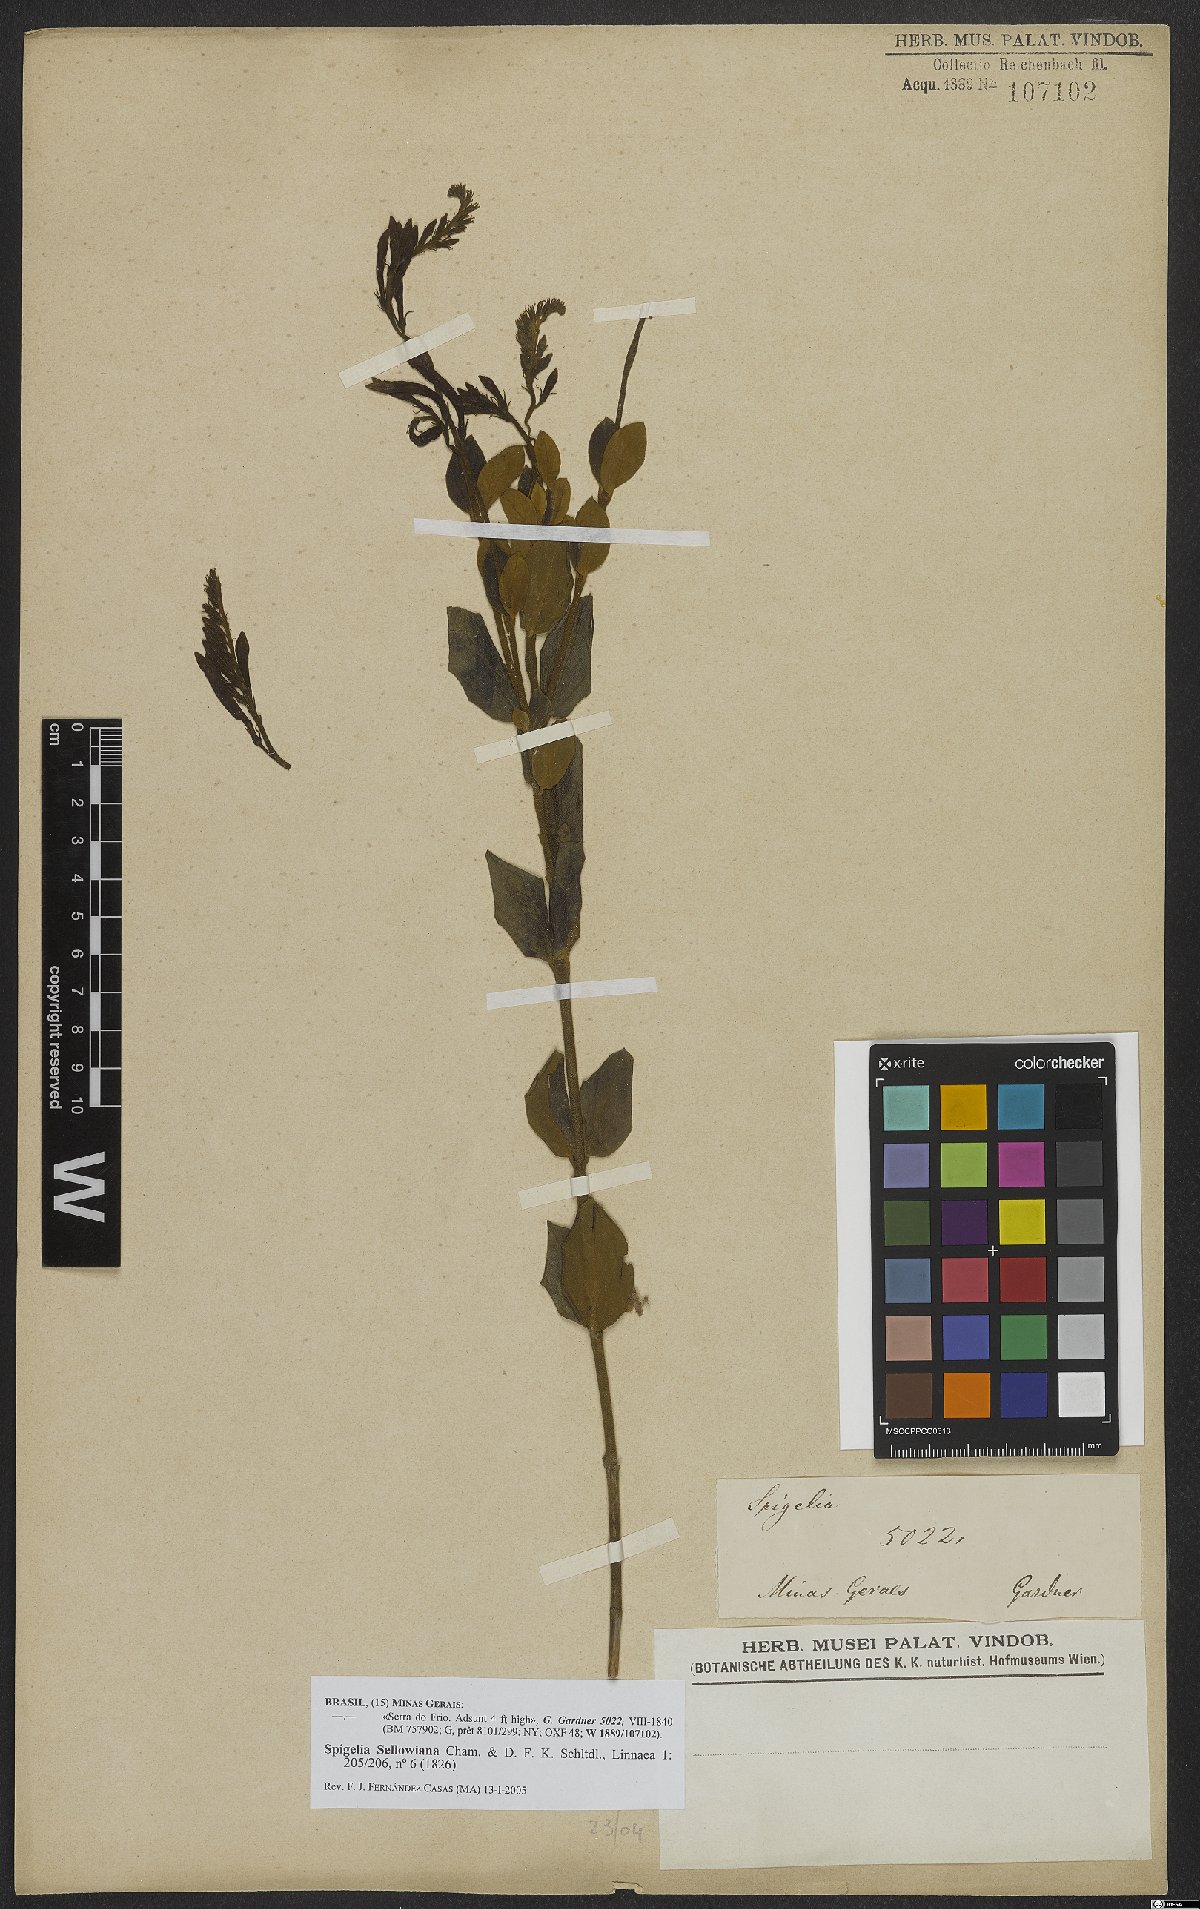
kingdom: Plantae
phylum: Tracheophyta
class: Magnoliopsida
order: Gentianales
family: Loganiaceae
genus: Spigelia
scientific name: Spigelia sellowiana
